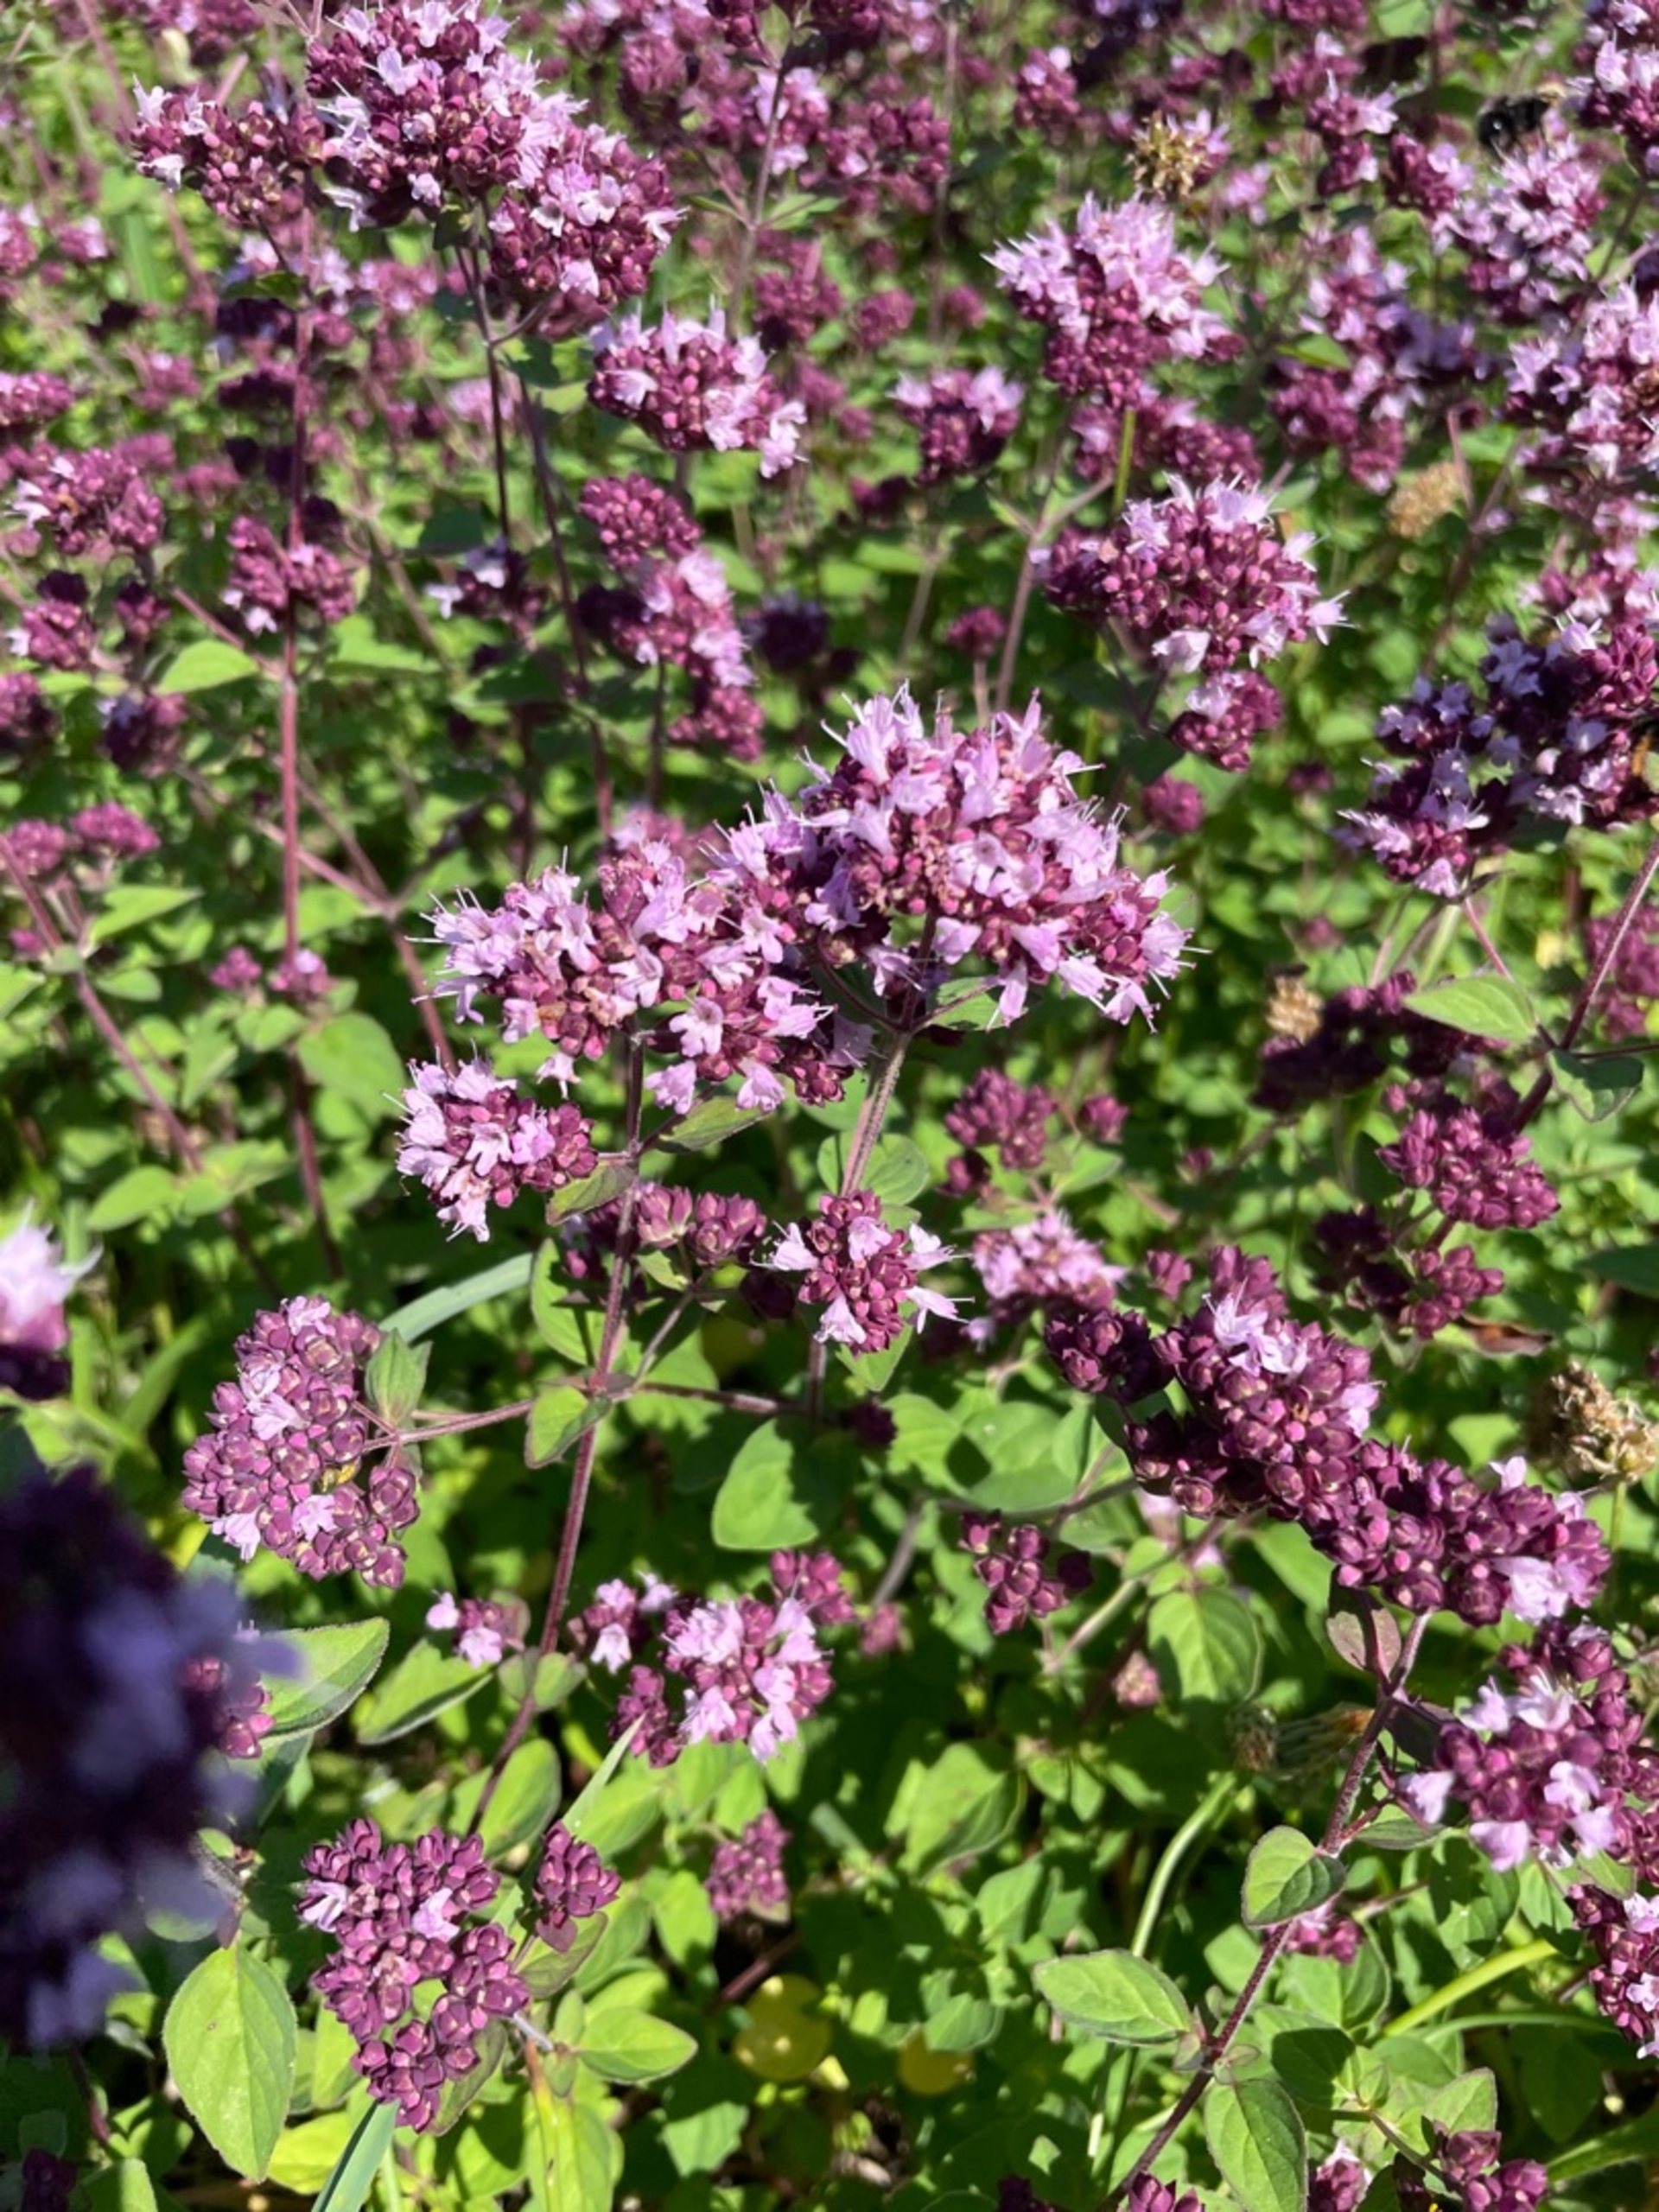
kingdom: Plantae
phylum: Tracheophyta
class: Magnoliopsida
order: Lamiales
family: Lamiaceae
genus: Origanum
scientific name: Origanum vulgare
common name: Merian
